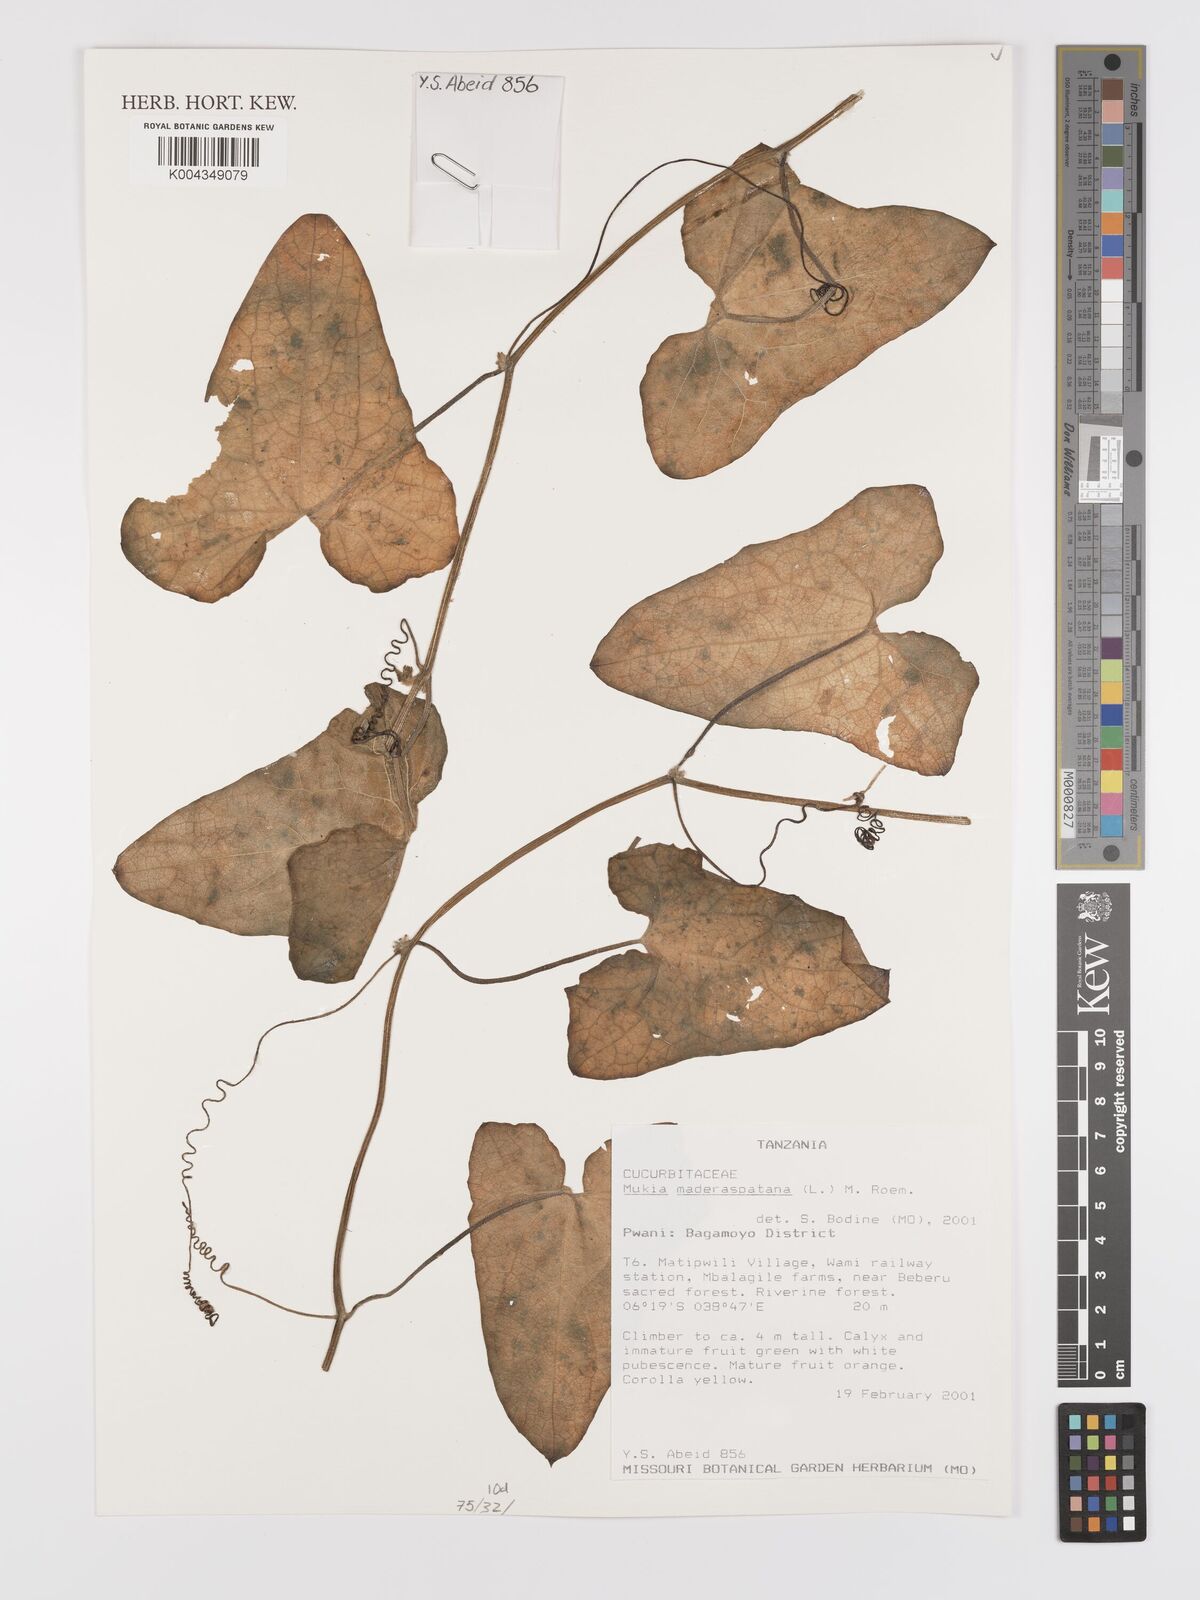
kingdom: Plantae
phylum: Tracheophyta
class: Magnoliopsida
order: Cucurbitales
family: Cucurbitaceae
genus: Cucumis
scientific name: Cucumis maderaspatanus
